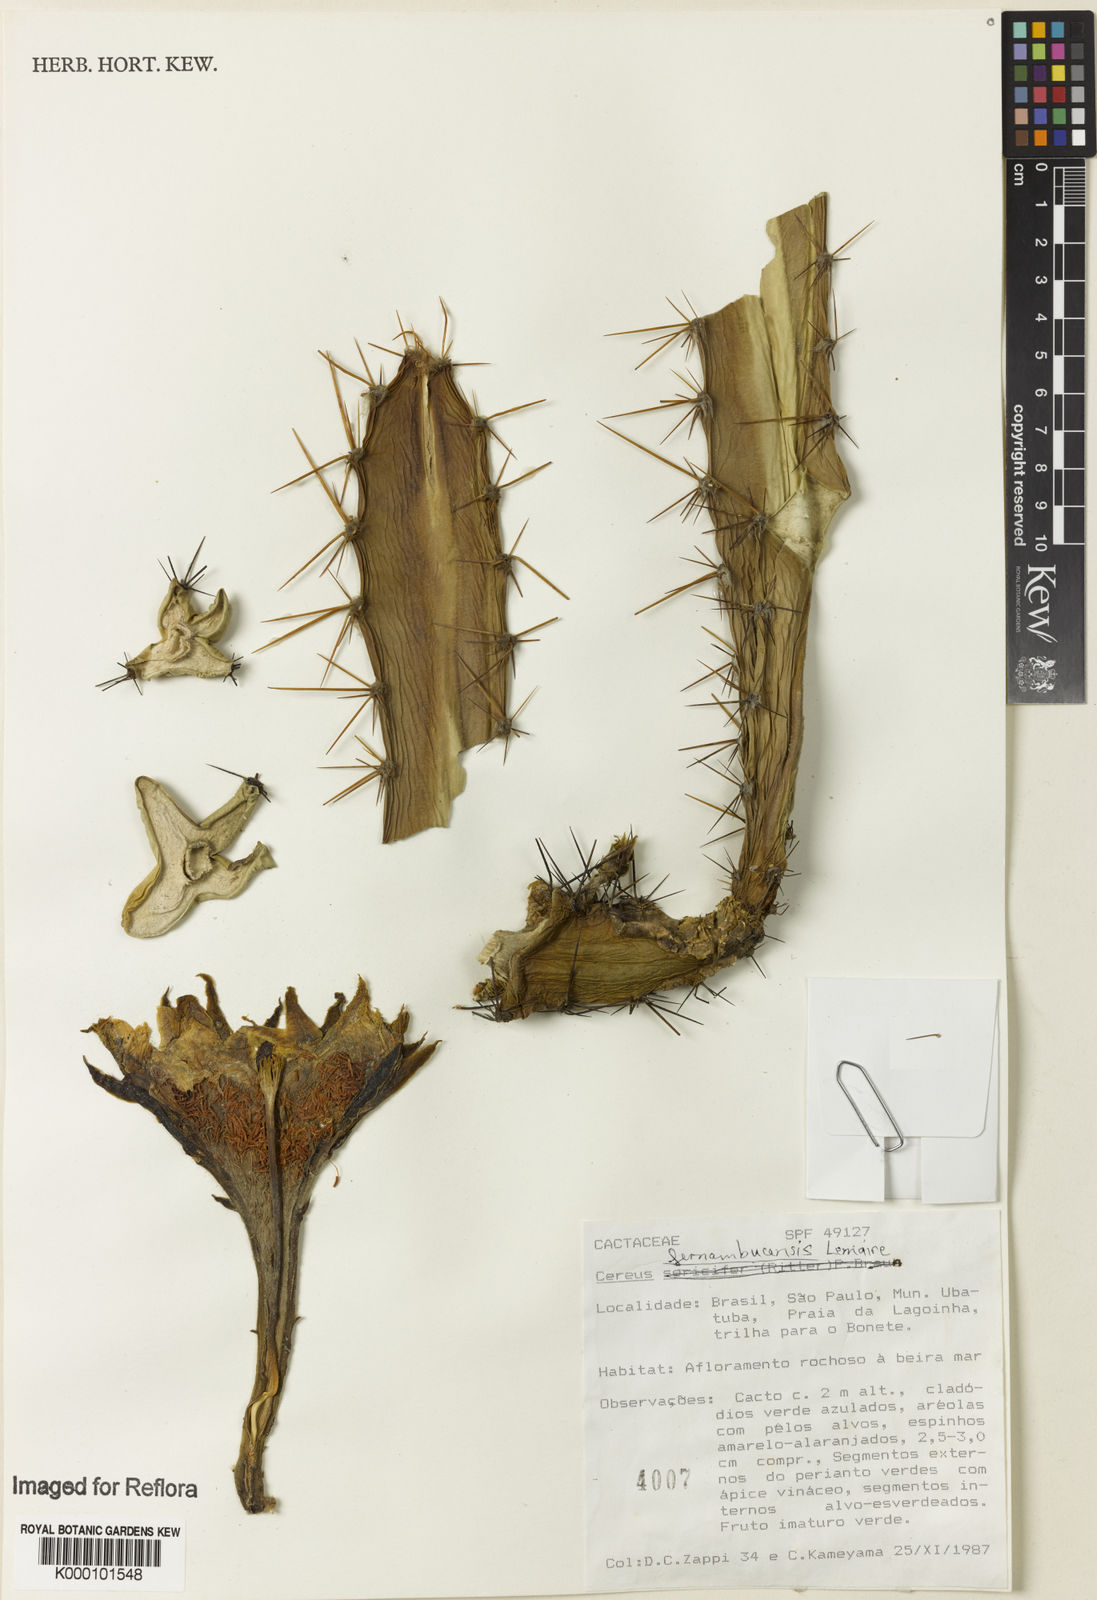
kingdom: Plantae
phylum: Tracheophyta
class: Magnoliopsida
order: Caryophyllales
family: Cactaceae
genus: Cereus
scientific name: Cereus
